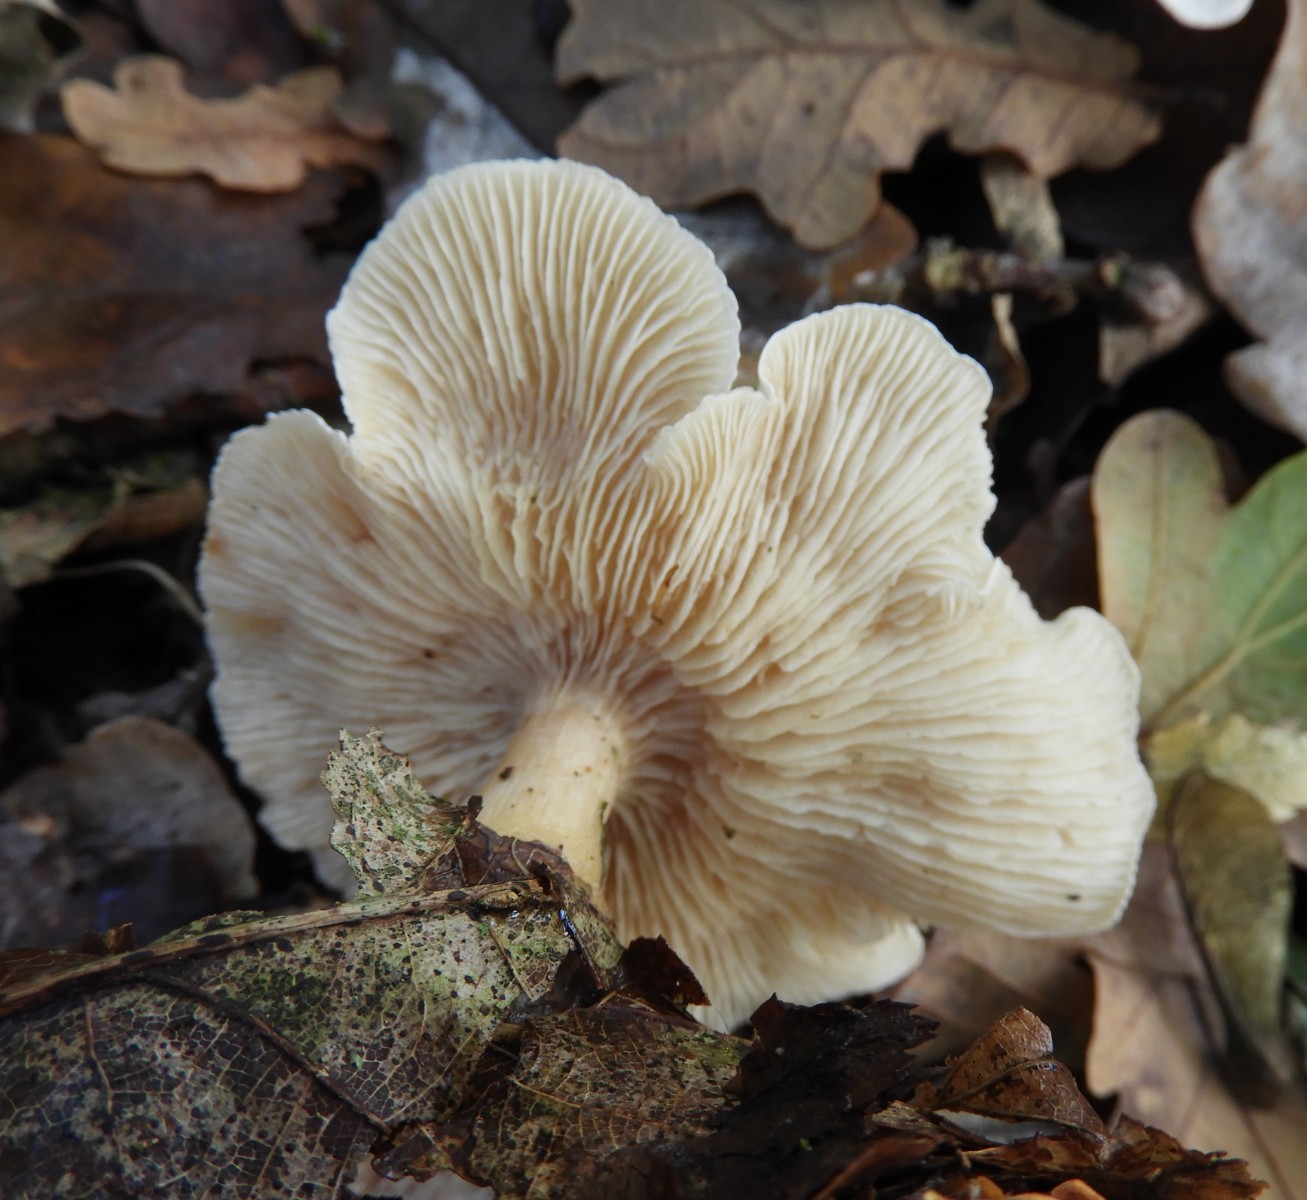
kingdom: Fungi
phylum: Basidiomycota
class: Agaricomycetes
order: Agaricales
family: Tricholomataceae
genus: Clitocybe
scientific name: Clitocybe phyllophila
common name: løv-tragthat
